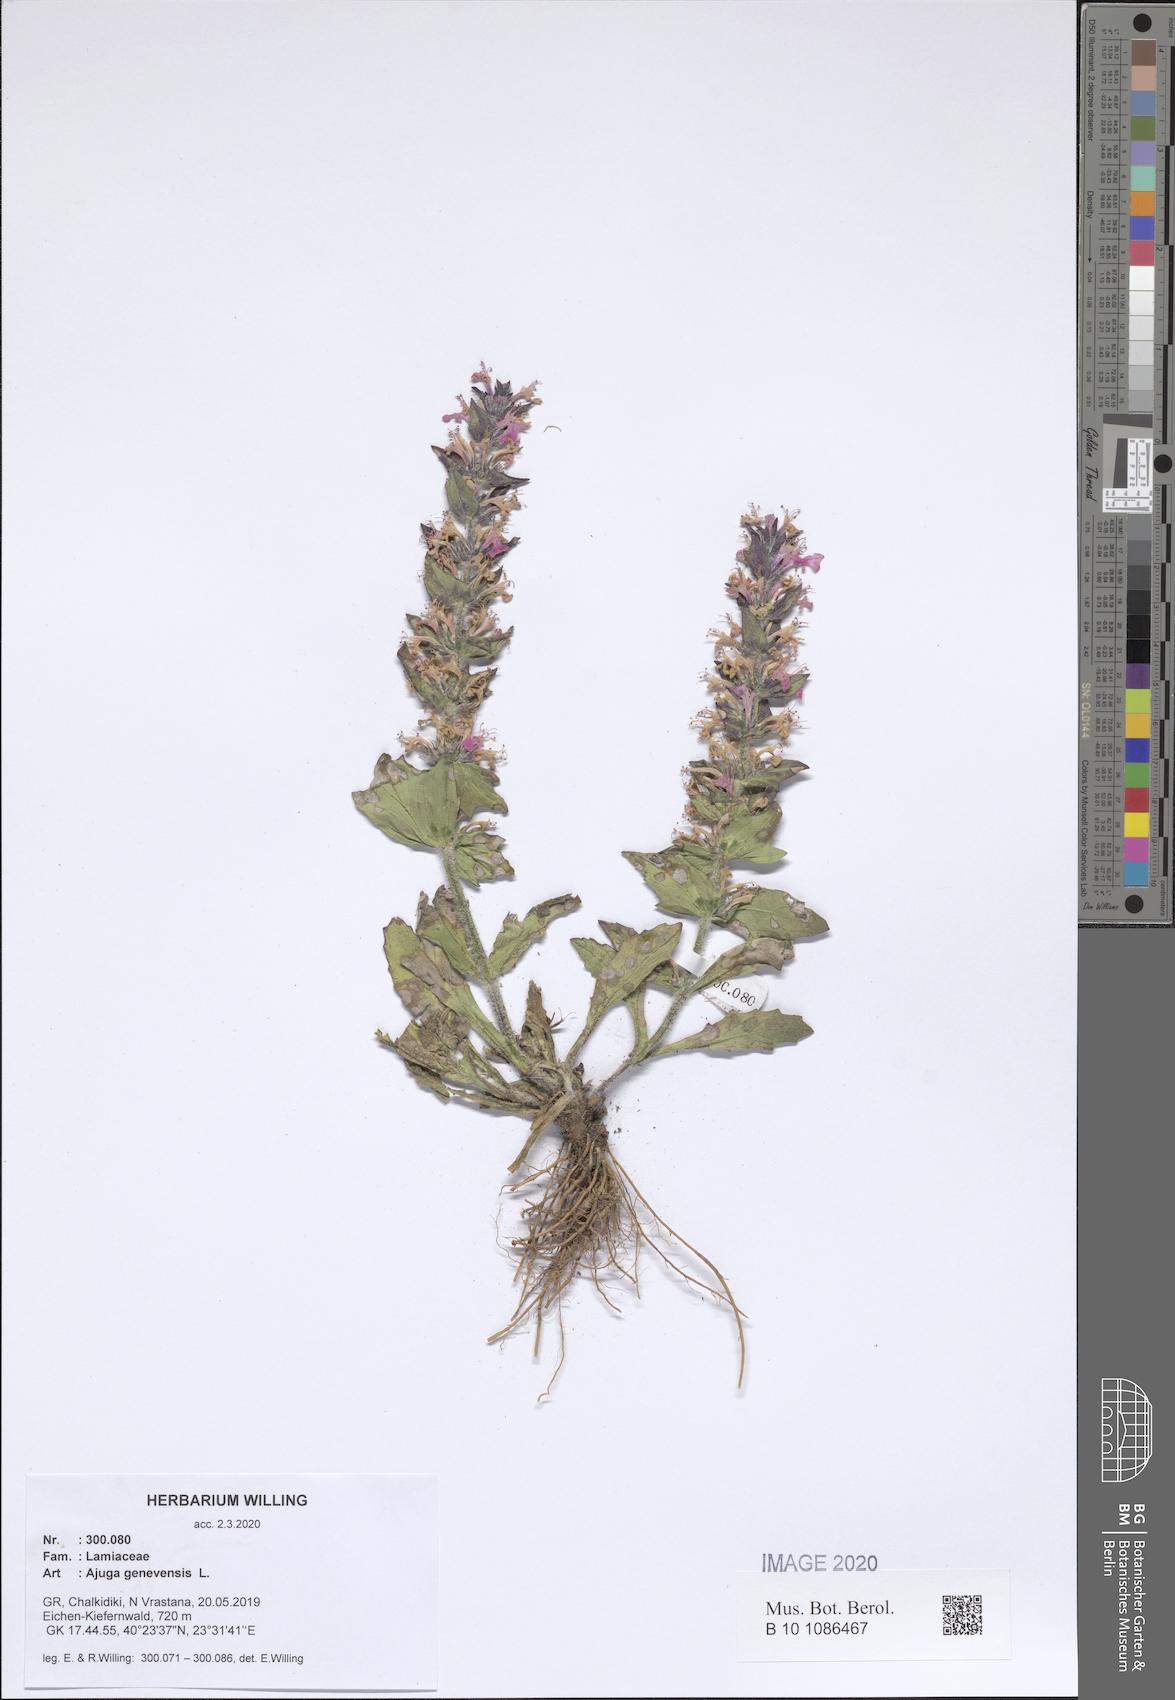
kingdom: Plantae
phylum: Tracheophyta
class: Magnoliopsida
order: Lamiales
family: Lamiaceae
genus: Ajuga
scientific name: Ajuga genevensis
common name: Blue bugle
